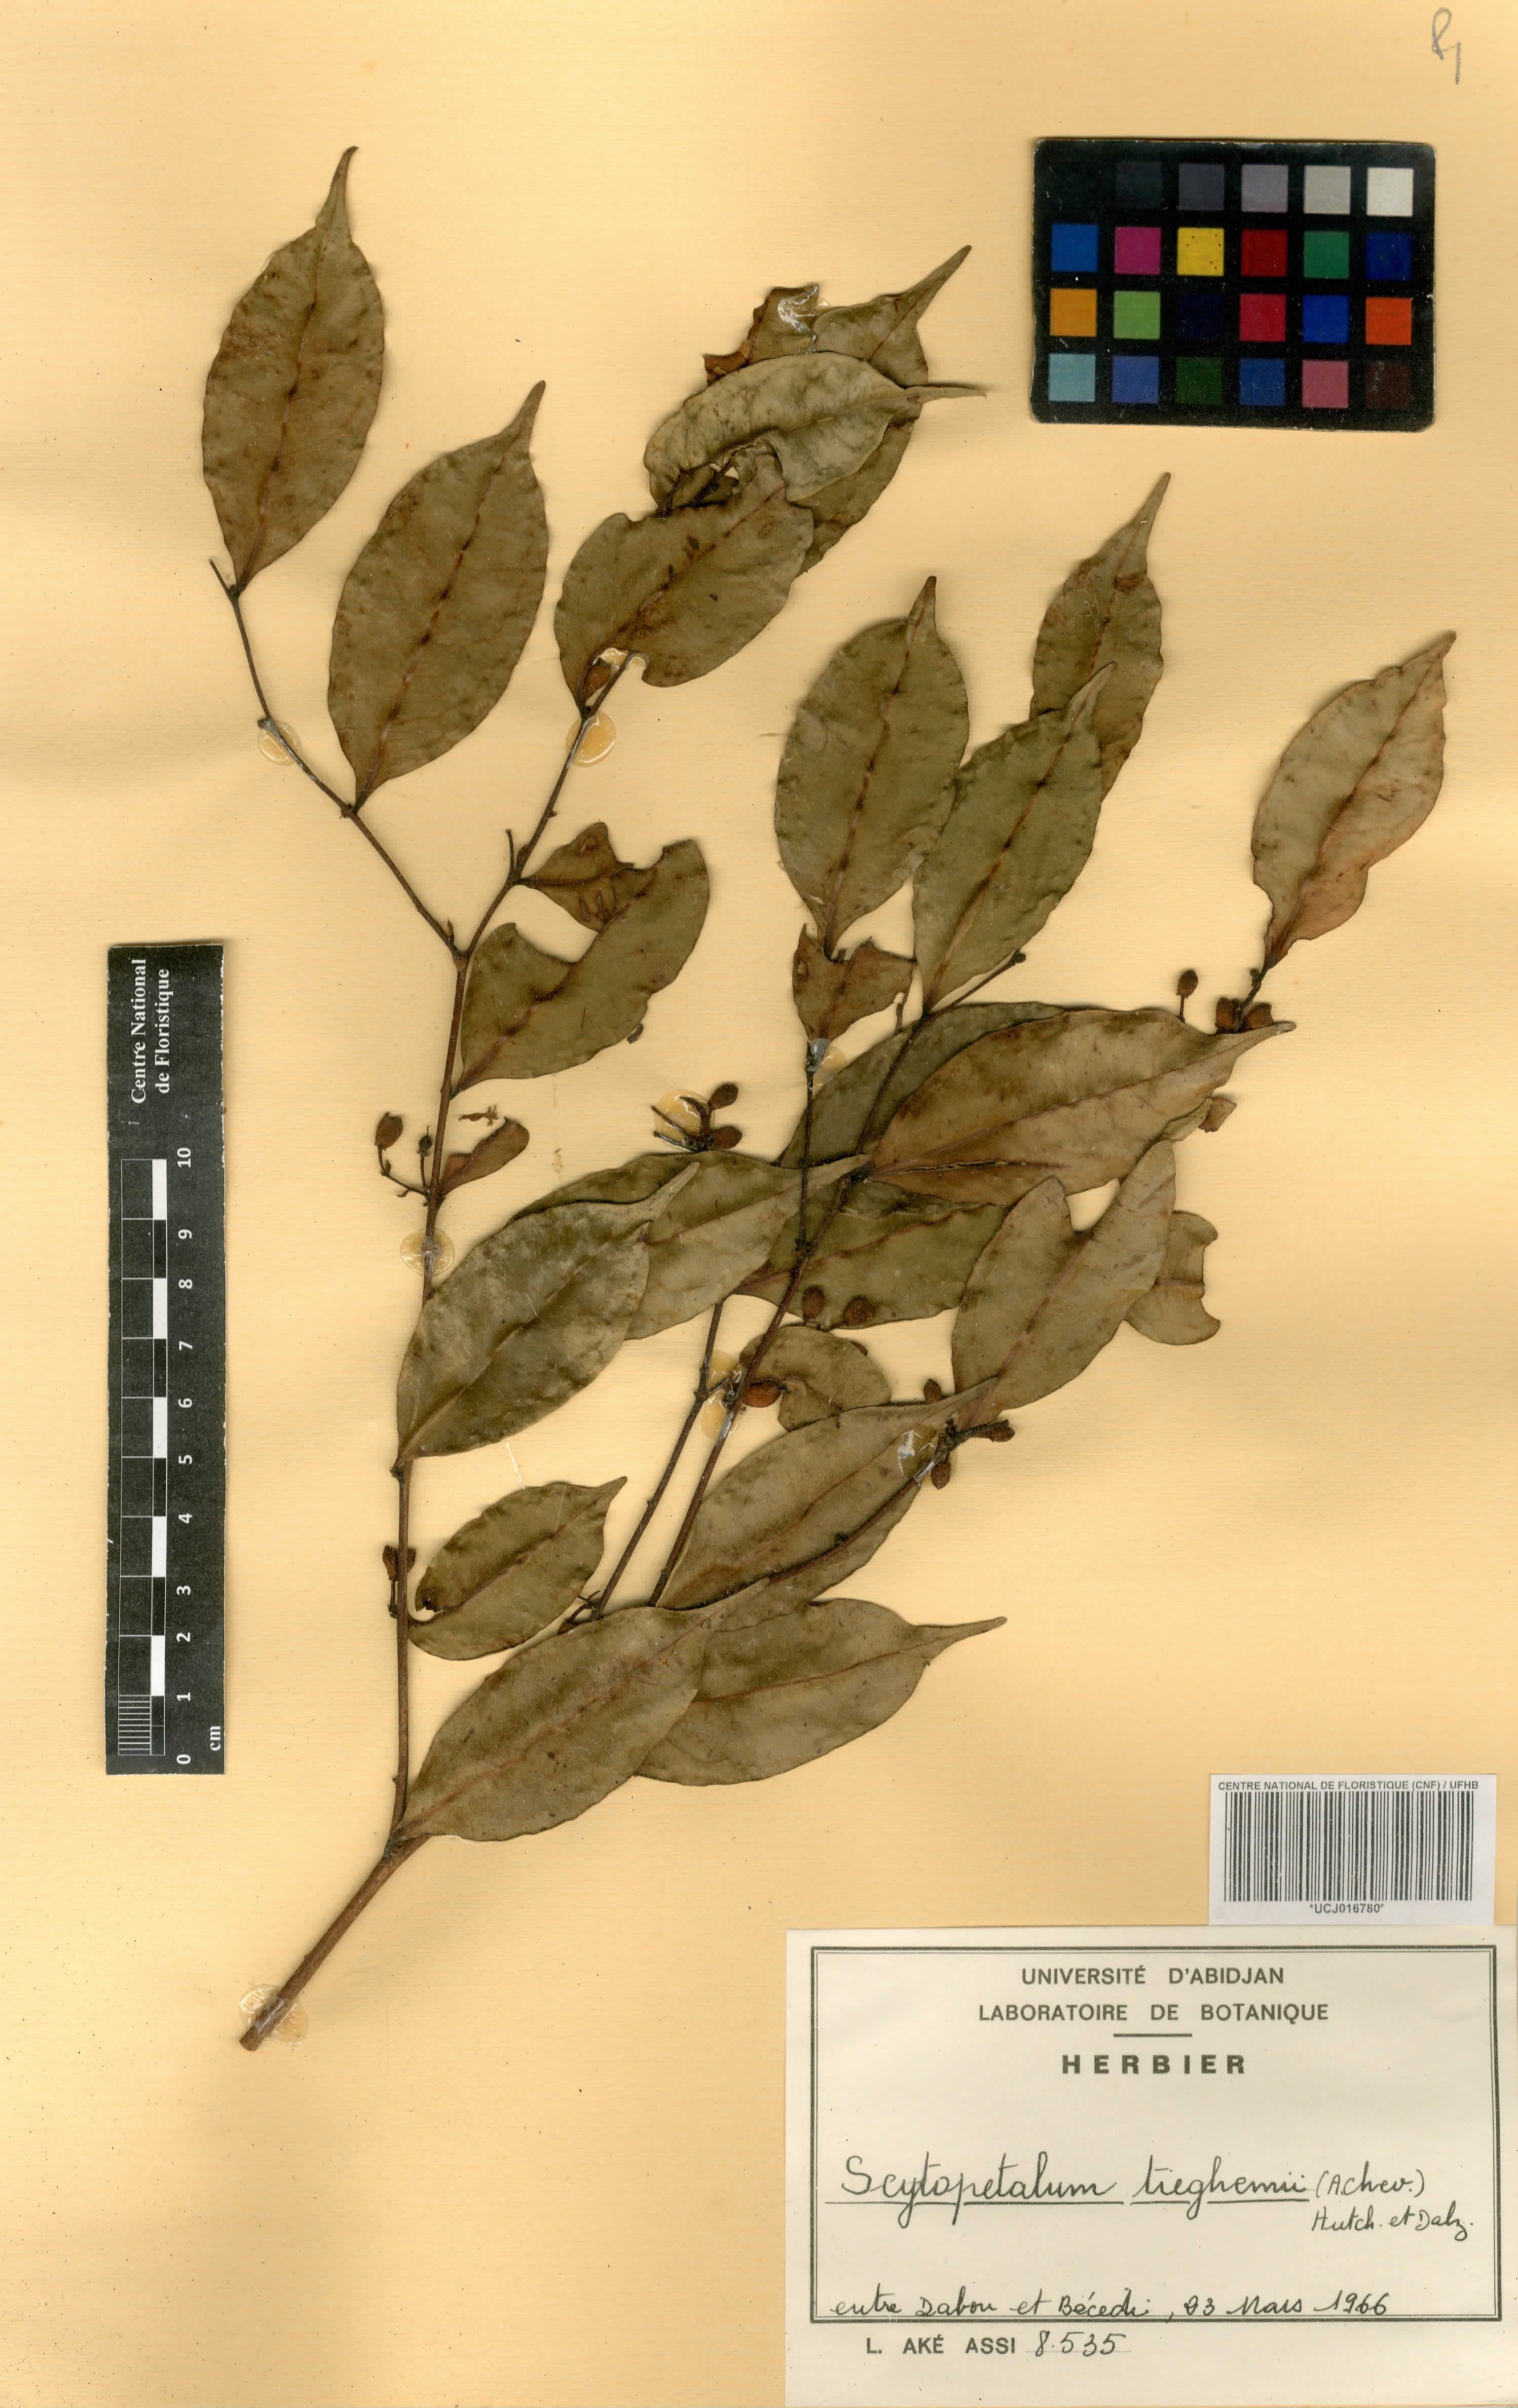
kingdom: Plantae
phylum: Tracheophyta
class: Magnoliopsida
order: Ericales
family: Lecythidaceae
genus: Scytopetalum
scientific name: Scytopetalum tieghemii
